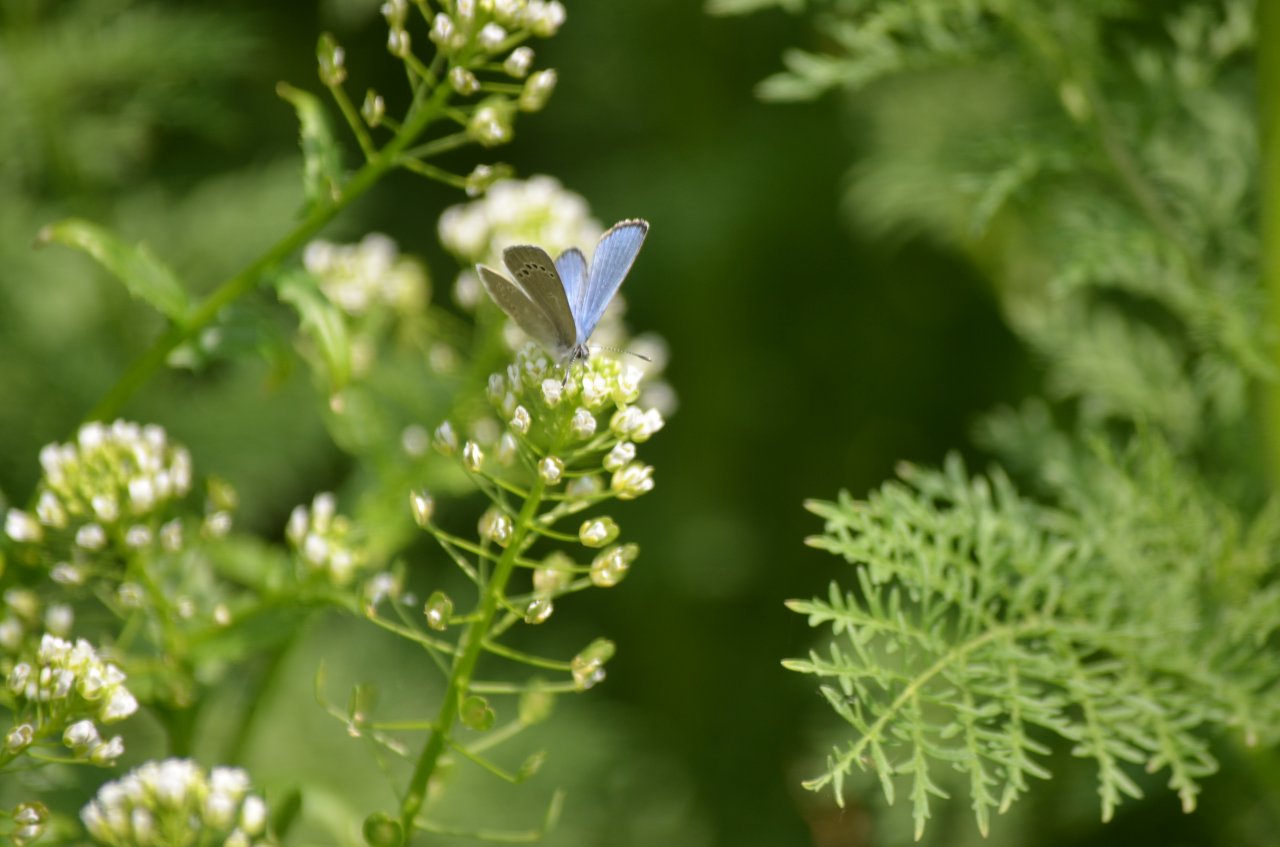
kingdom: Animalia
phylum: Arthropoda
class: Insecta
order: Lepidoptera
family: Lycaenidae
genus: Glaucopsyche
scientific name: Glaucopsyche lygdamus
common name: Silvery Blue
